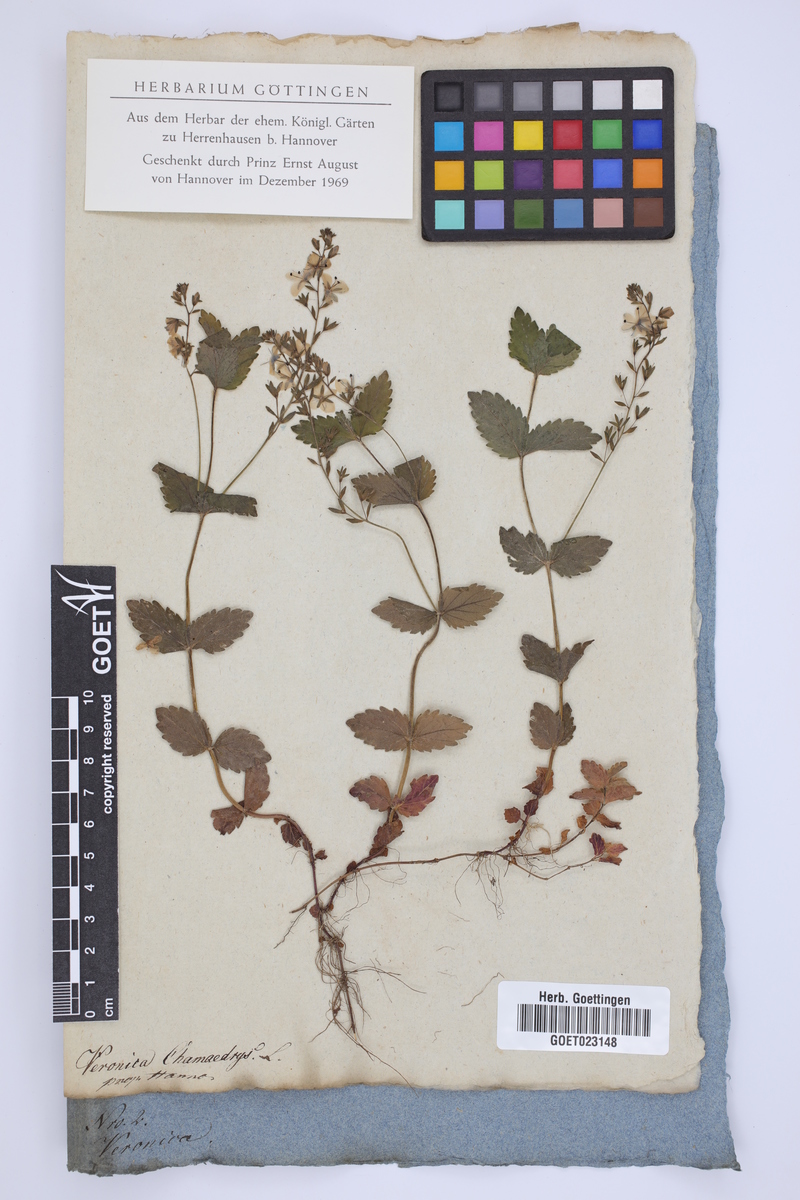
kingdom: Plantae
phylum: Tracheophyta
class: Magnoliopsida
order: Lamiales
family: Plantaginaceae
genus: Veronica
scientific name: Veronica chamaedrys
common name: Germander speedwell
